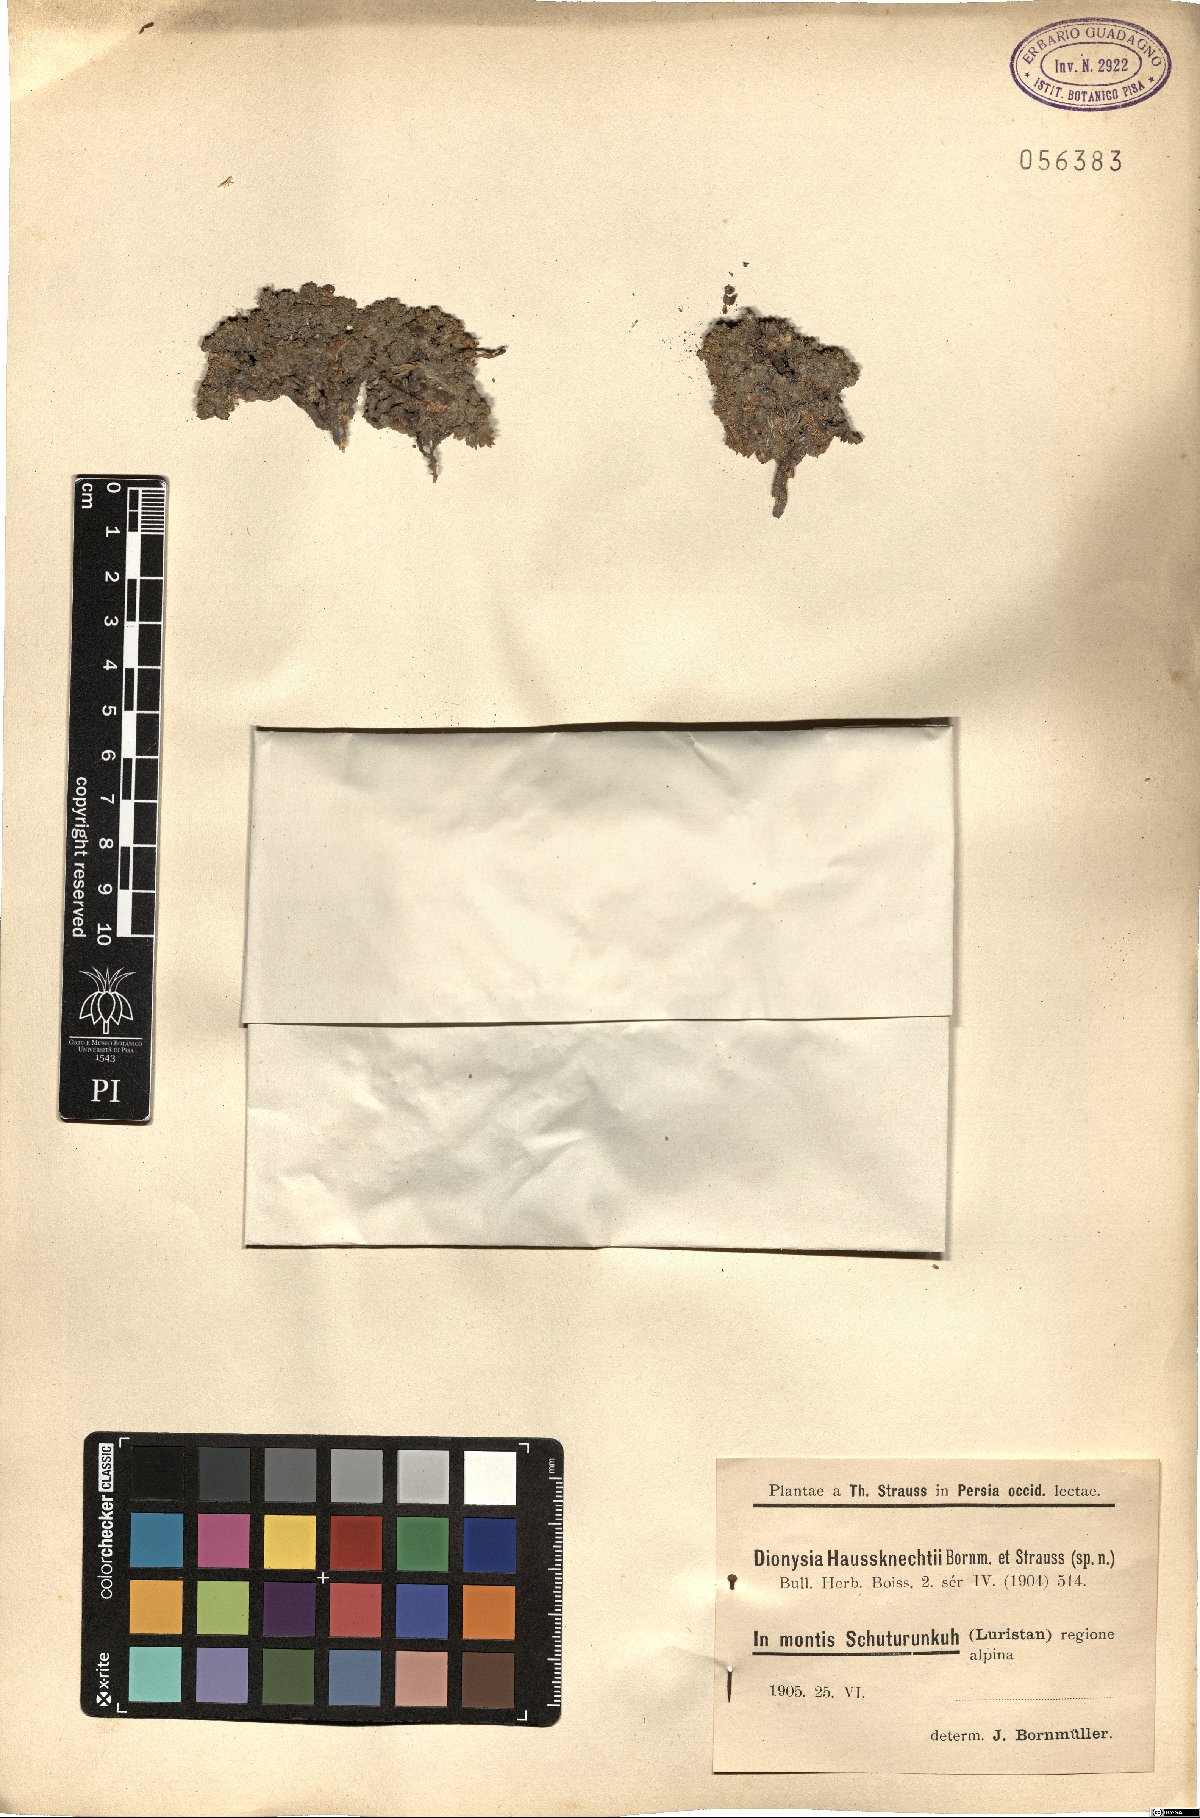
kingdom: Plantae
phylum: Tracheophyta
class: Magnoliopsida
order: Ericales
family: Primulaceae
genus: Dionysia
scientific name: Dionysia haussknechtii
